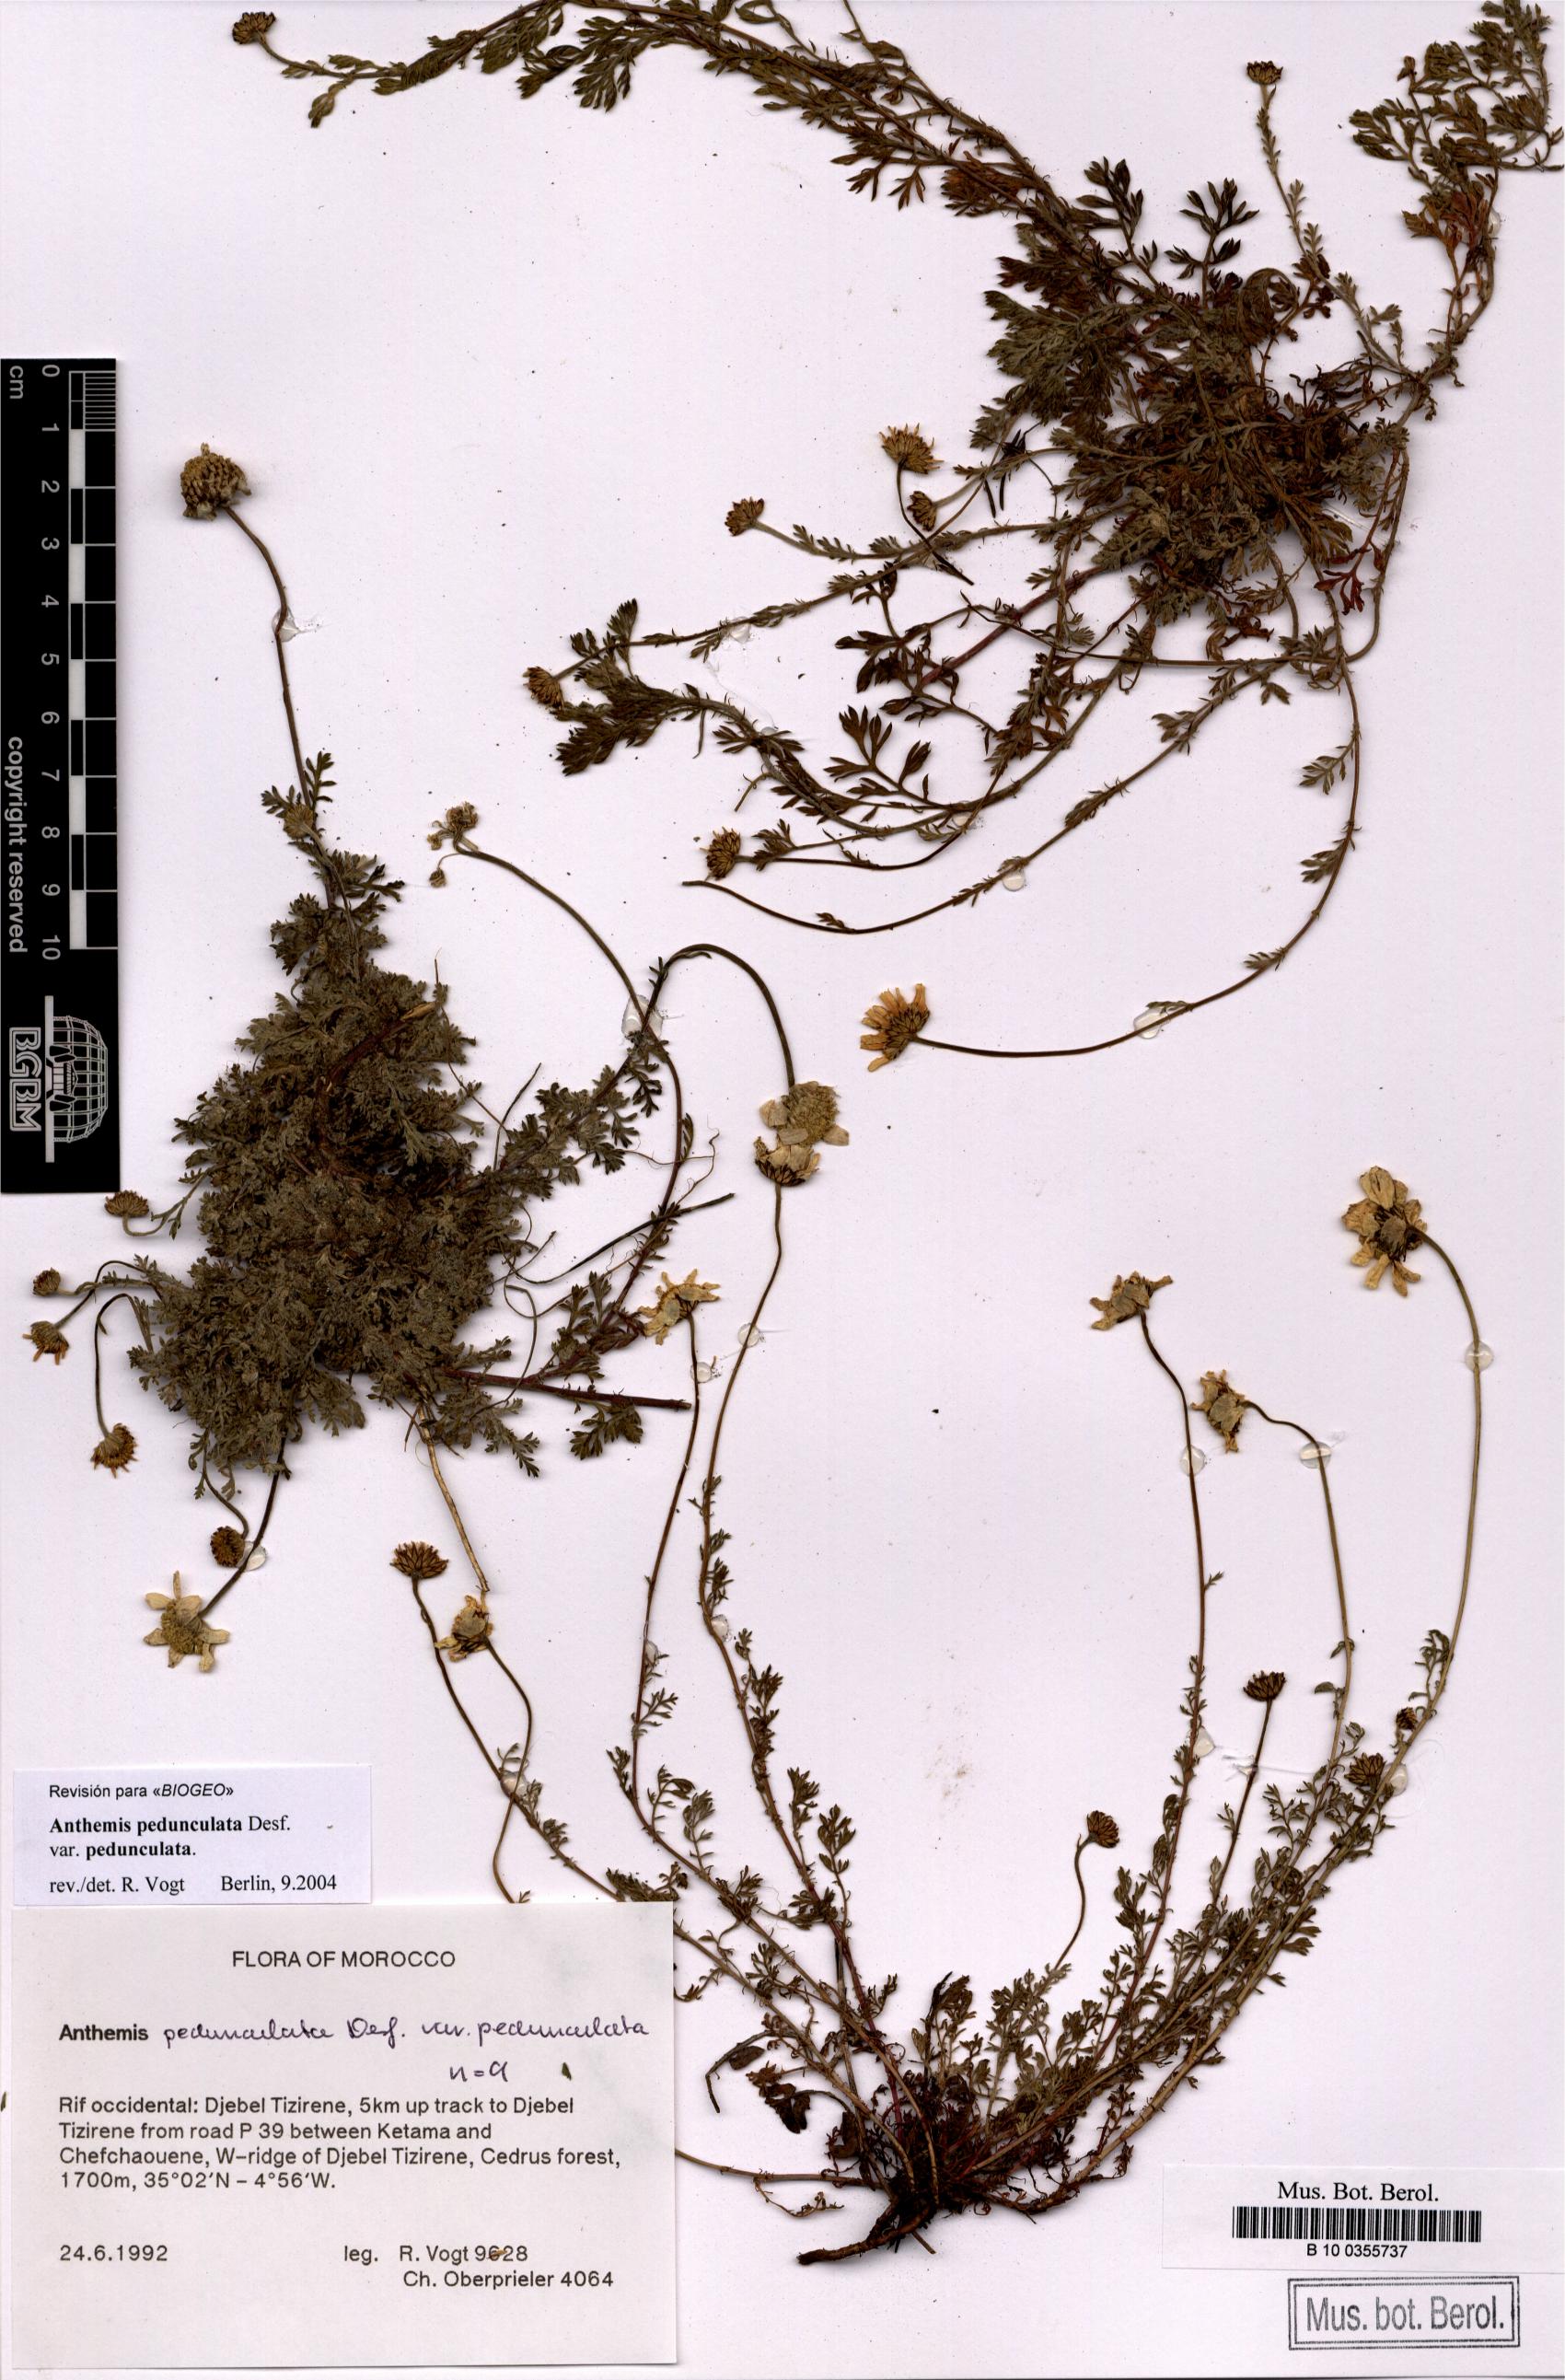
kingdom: Plantae
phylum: Tracheophyta
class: Magnoliopsida
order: Asterales
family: Asteraceae
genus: Anthemis
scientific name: Anthemis pedunculata
